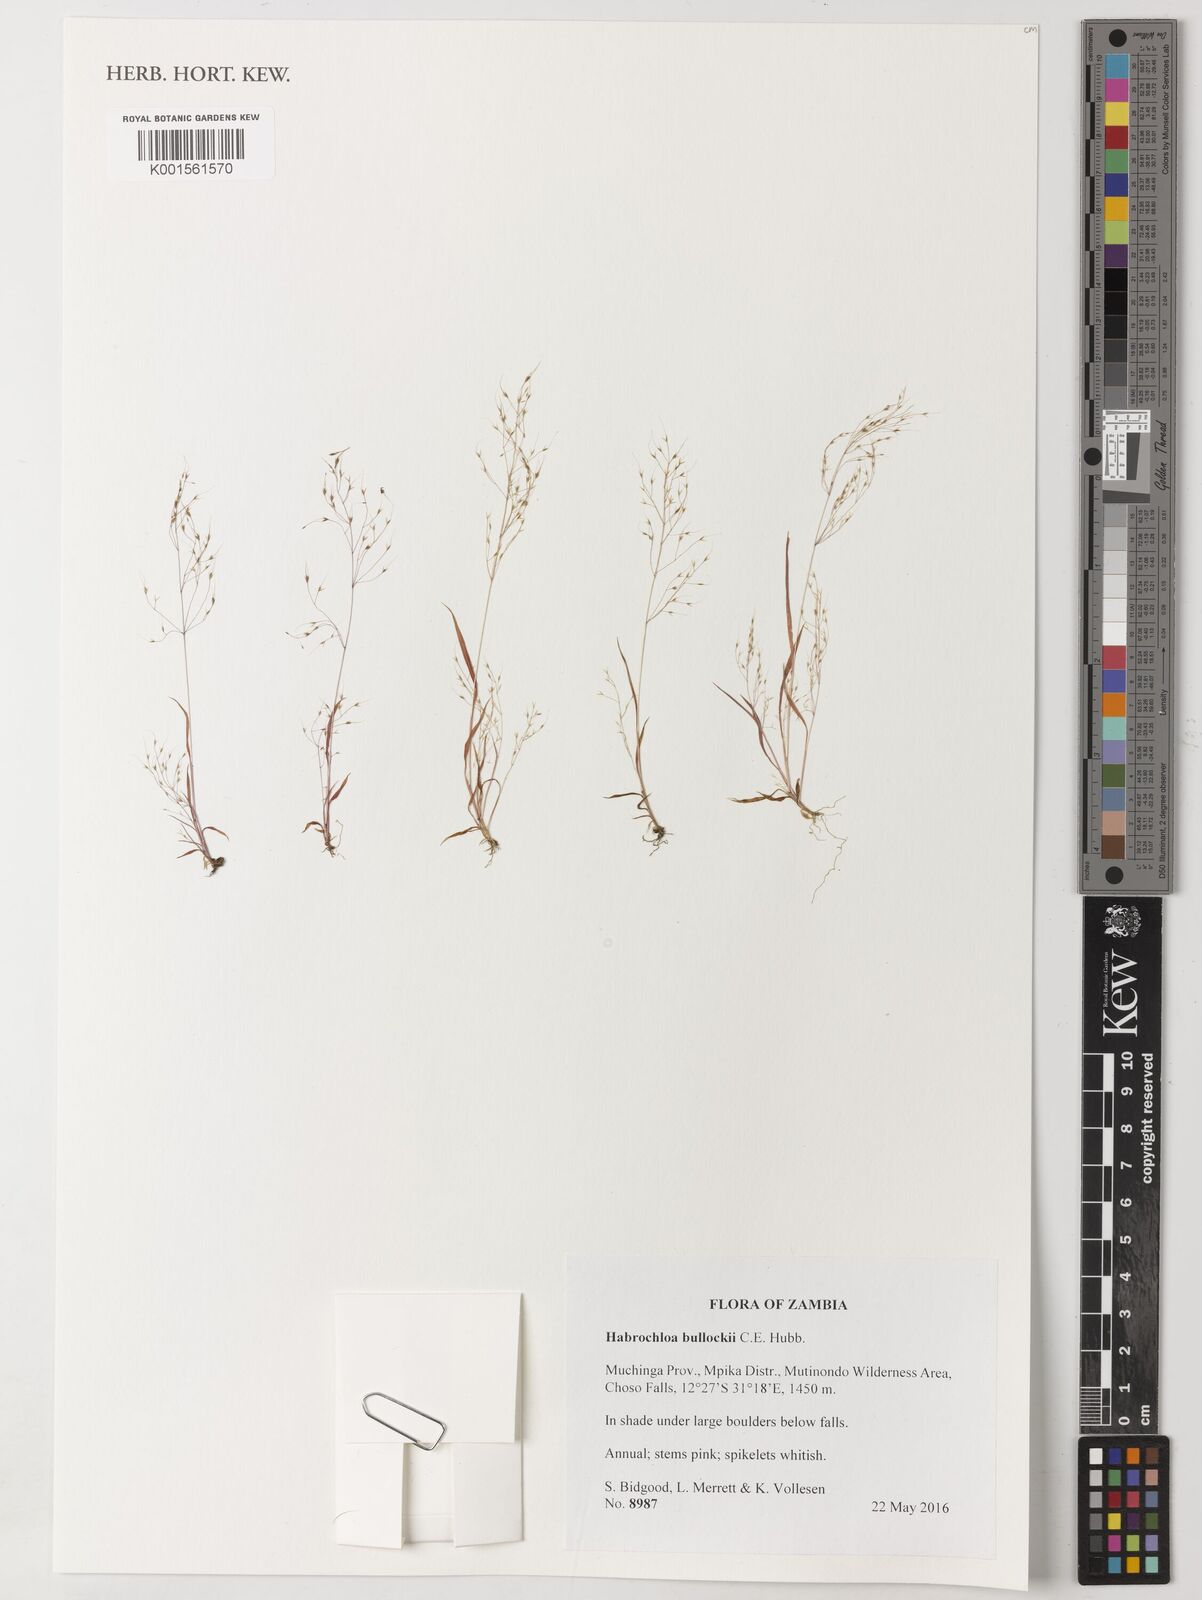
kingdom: Plantae
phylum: Tracheophyta
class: Liliopsida
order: Poales
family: Poaceae
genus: Habrochloa
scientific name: Habrochloa bullockii
